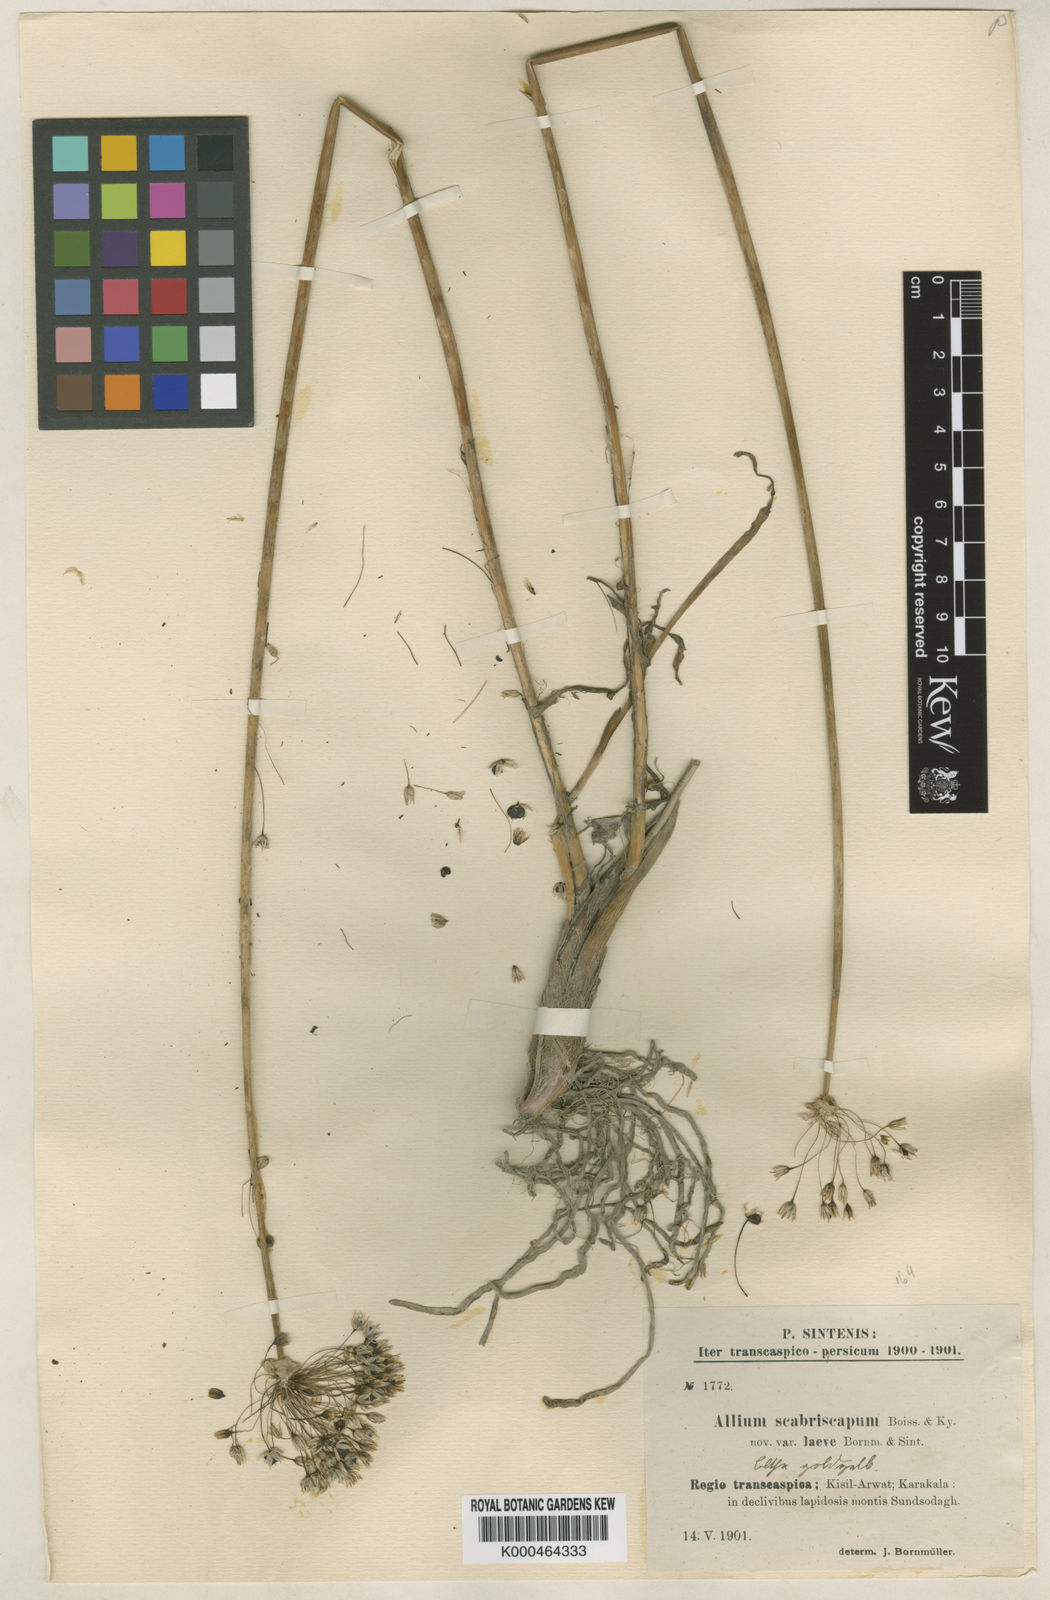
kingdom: Plantae
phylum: Tracheophyta
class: Liliopsida
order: Asparagales
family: Amaryllidaceae
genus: Allium
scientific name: Allium scabriscapum
